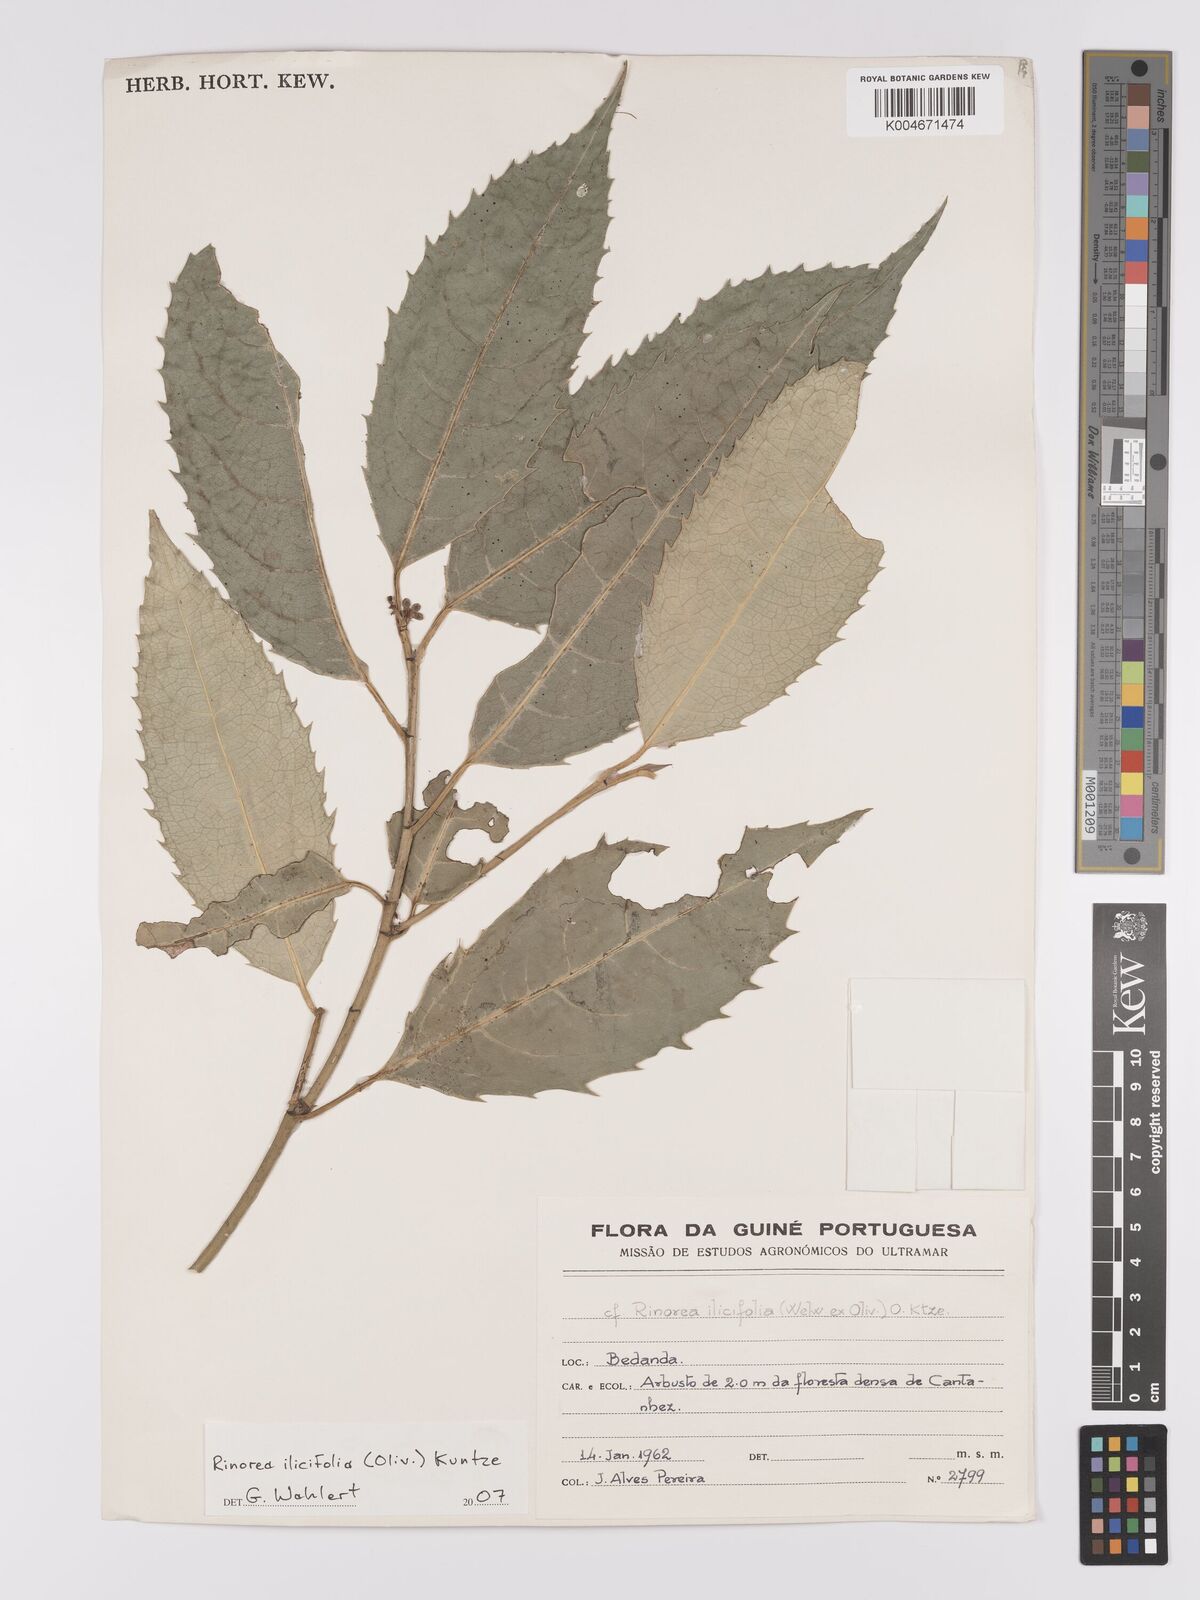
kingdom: Plantae
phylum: Tracheophyta
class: Magnoliopsida
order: Malpighiales
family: Violaceae
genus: Rinorea
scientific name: Rinorea ilicifolia
